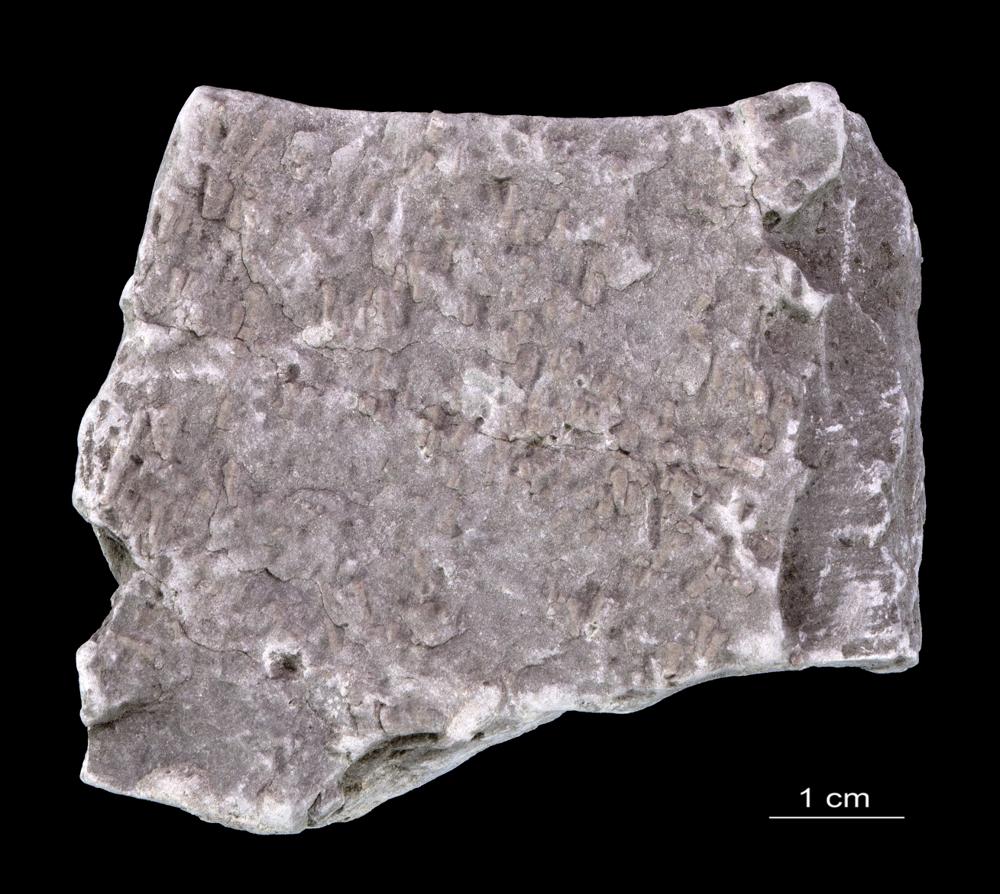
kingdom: Animalia
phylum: Annelida
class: Polychaeta
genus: Volborthella
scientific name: Volborthella tenuis
